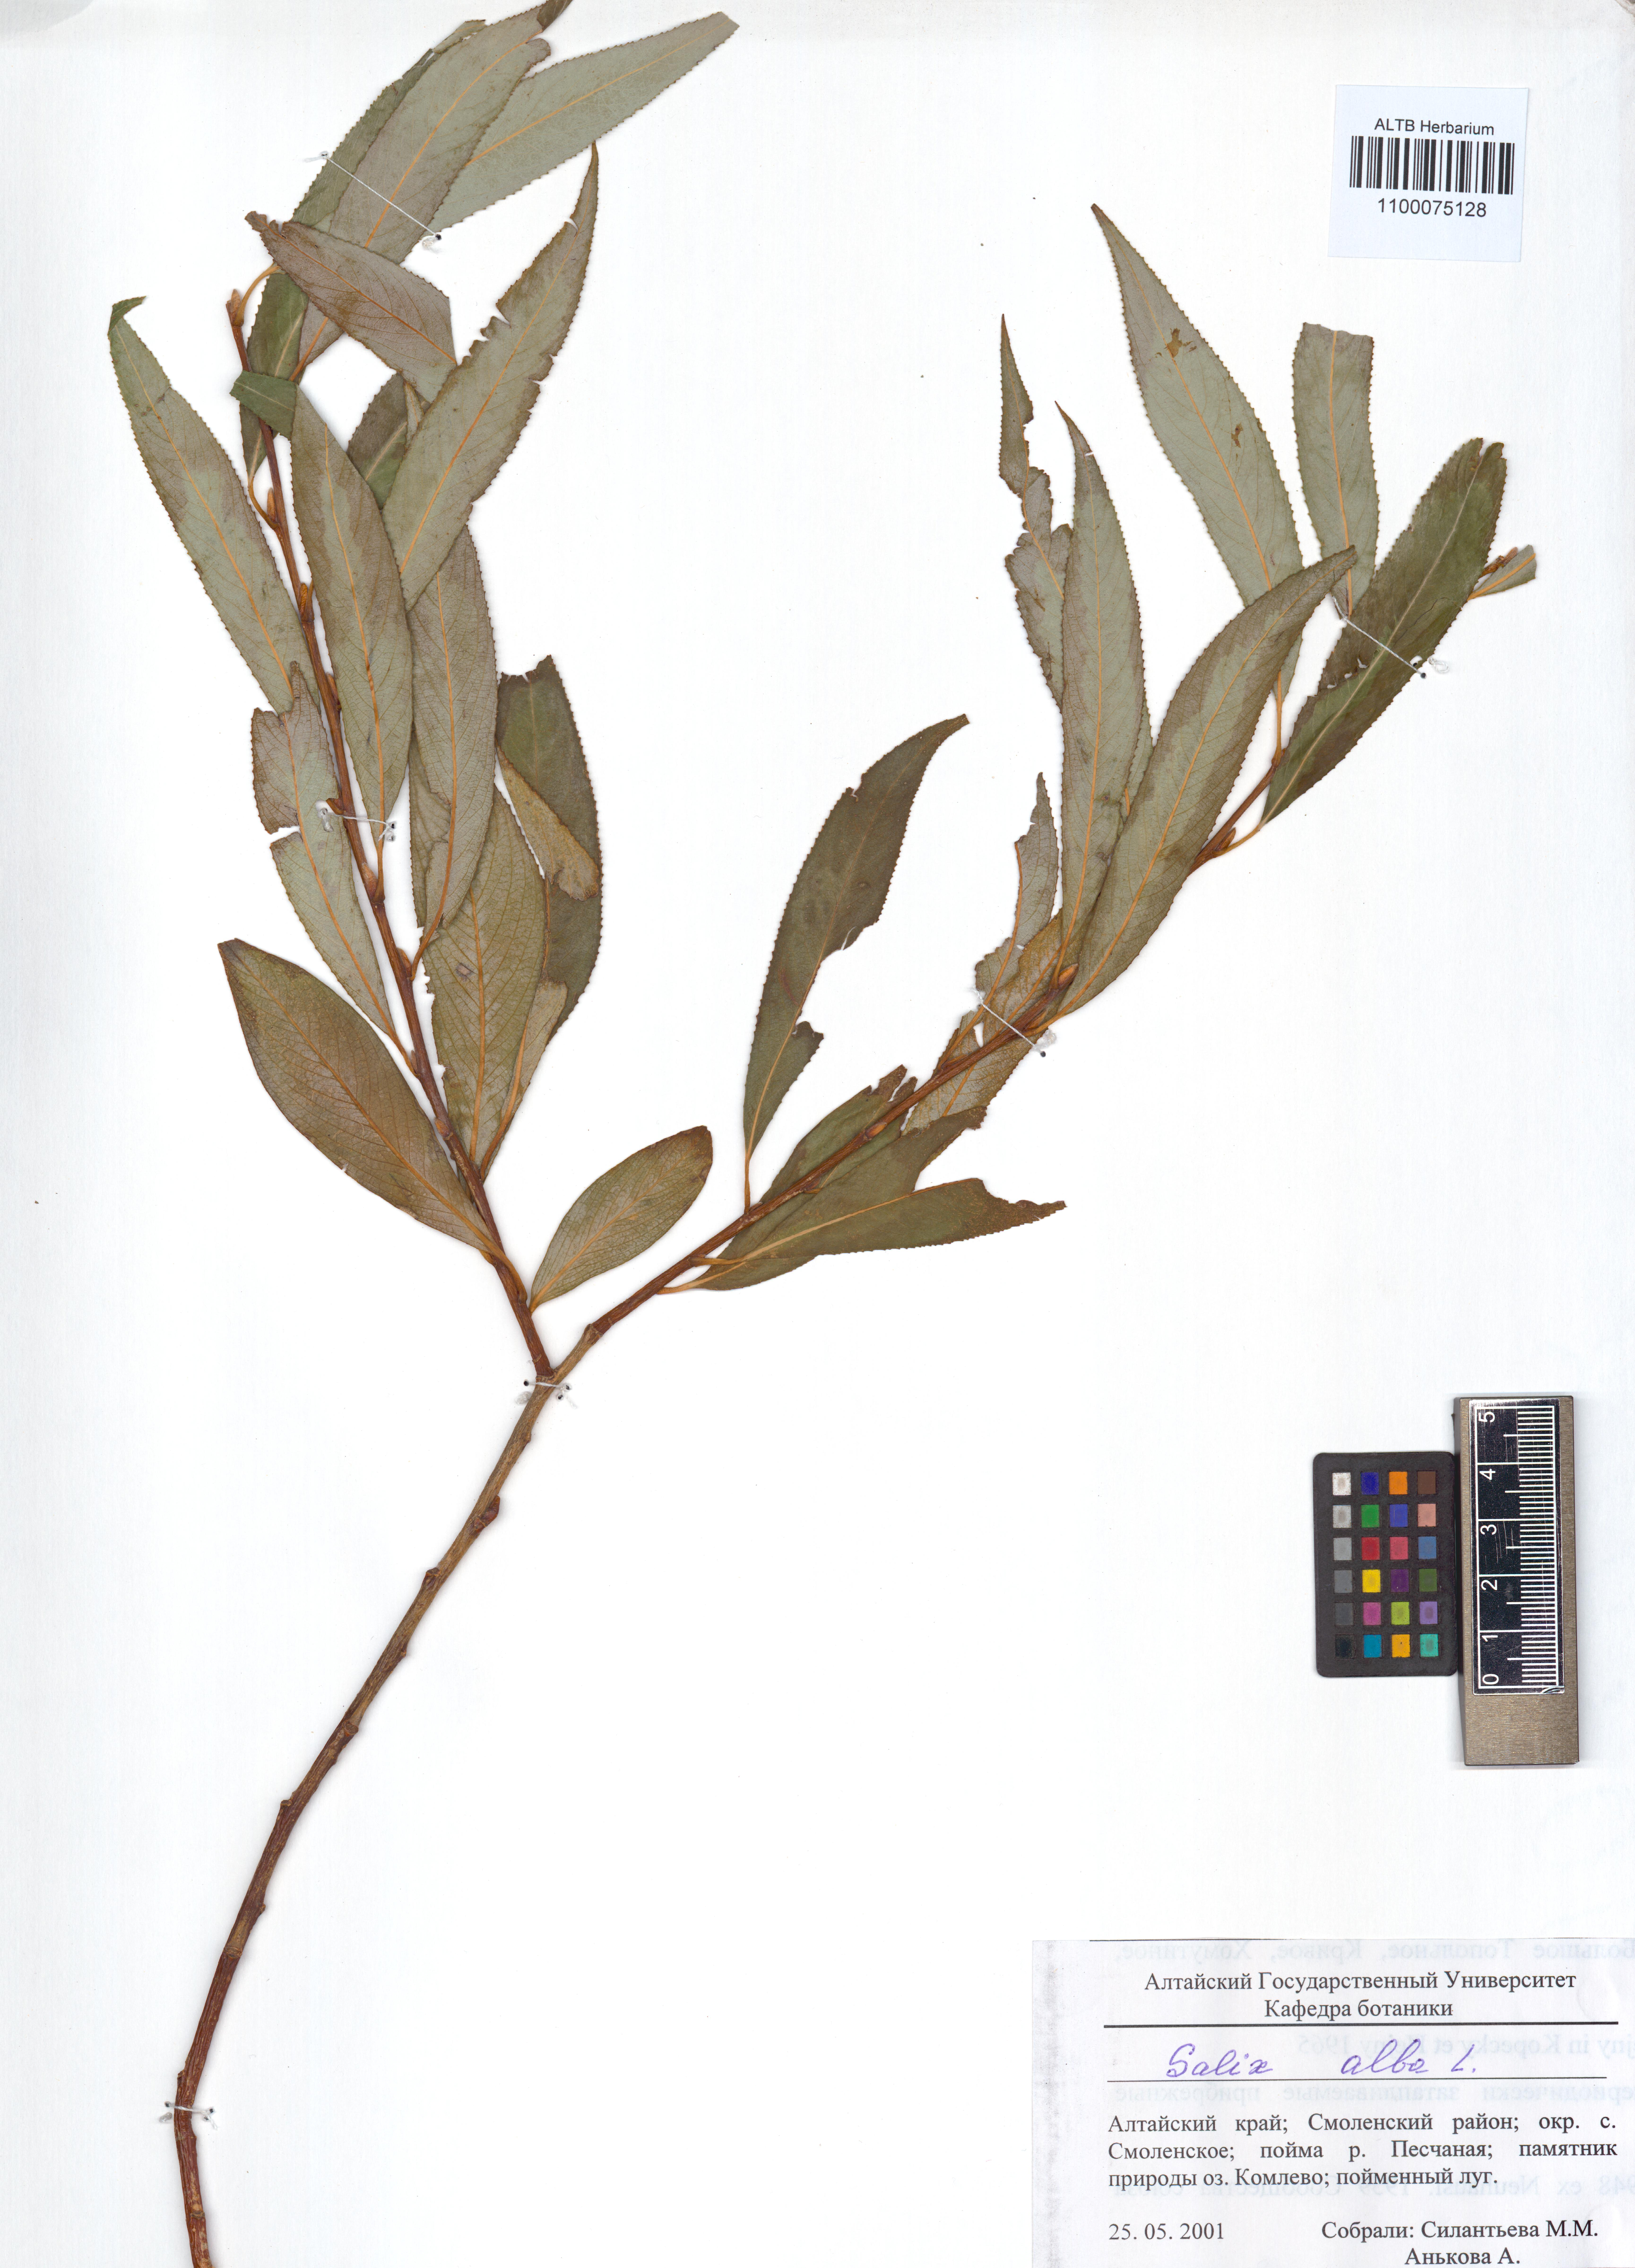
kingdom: Plantae
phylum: Tracheophyta
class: Magnoliopsida
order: Malpighiales
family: Salicaceae
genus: Salix
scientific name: Salix alba
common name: White willow
